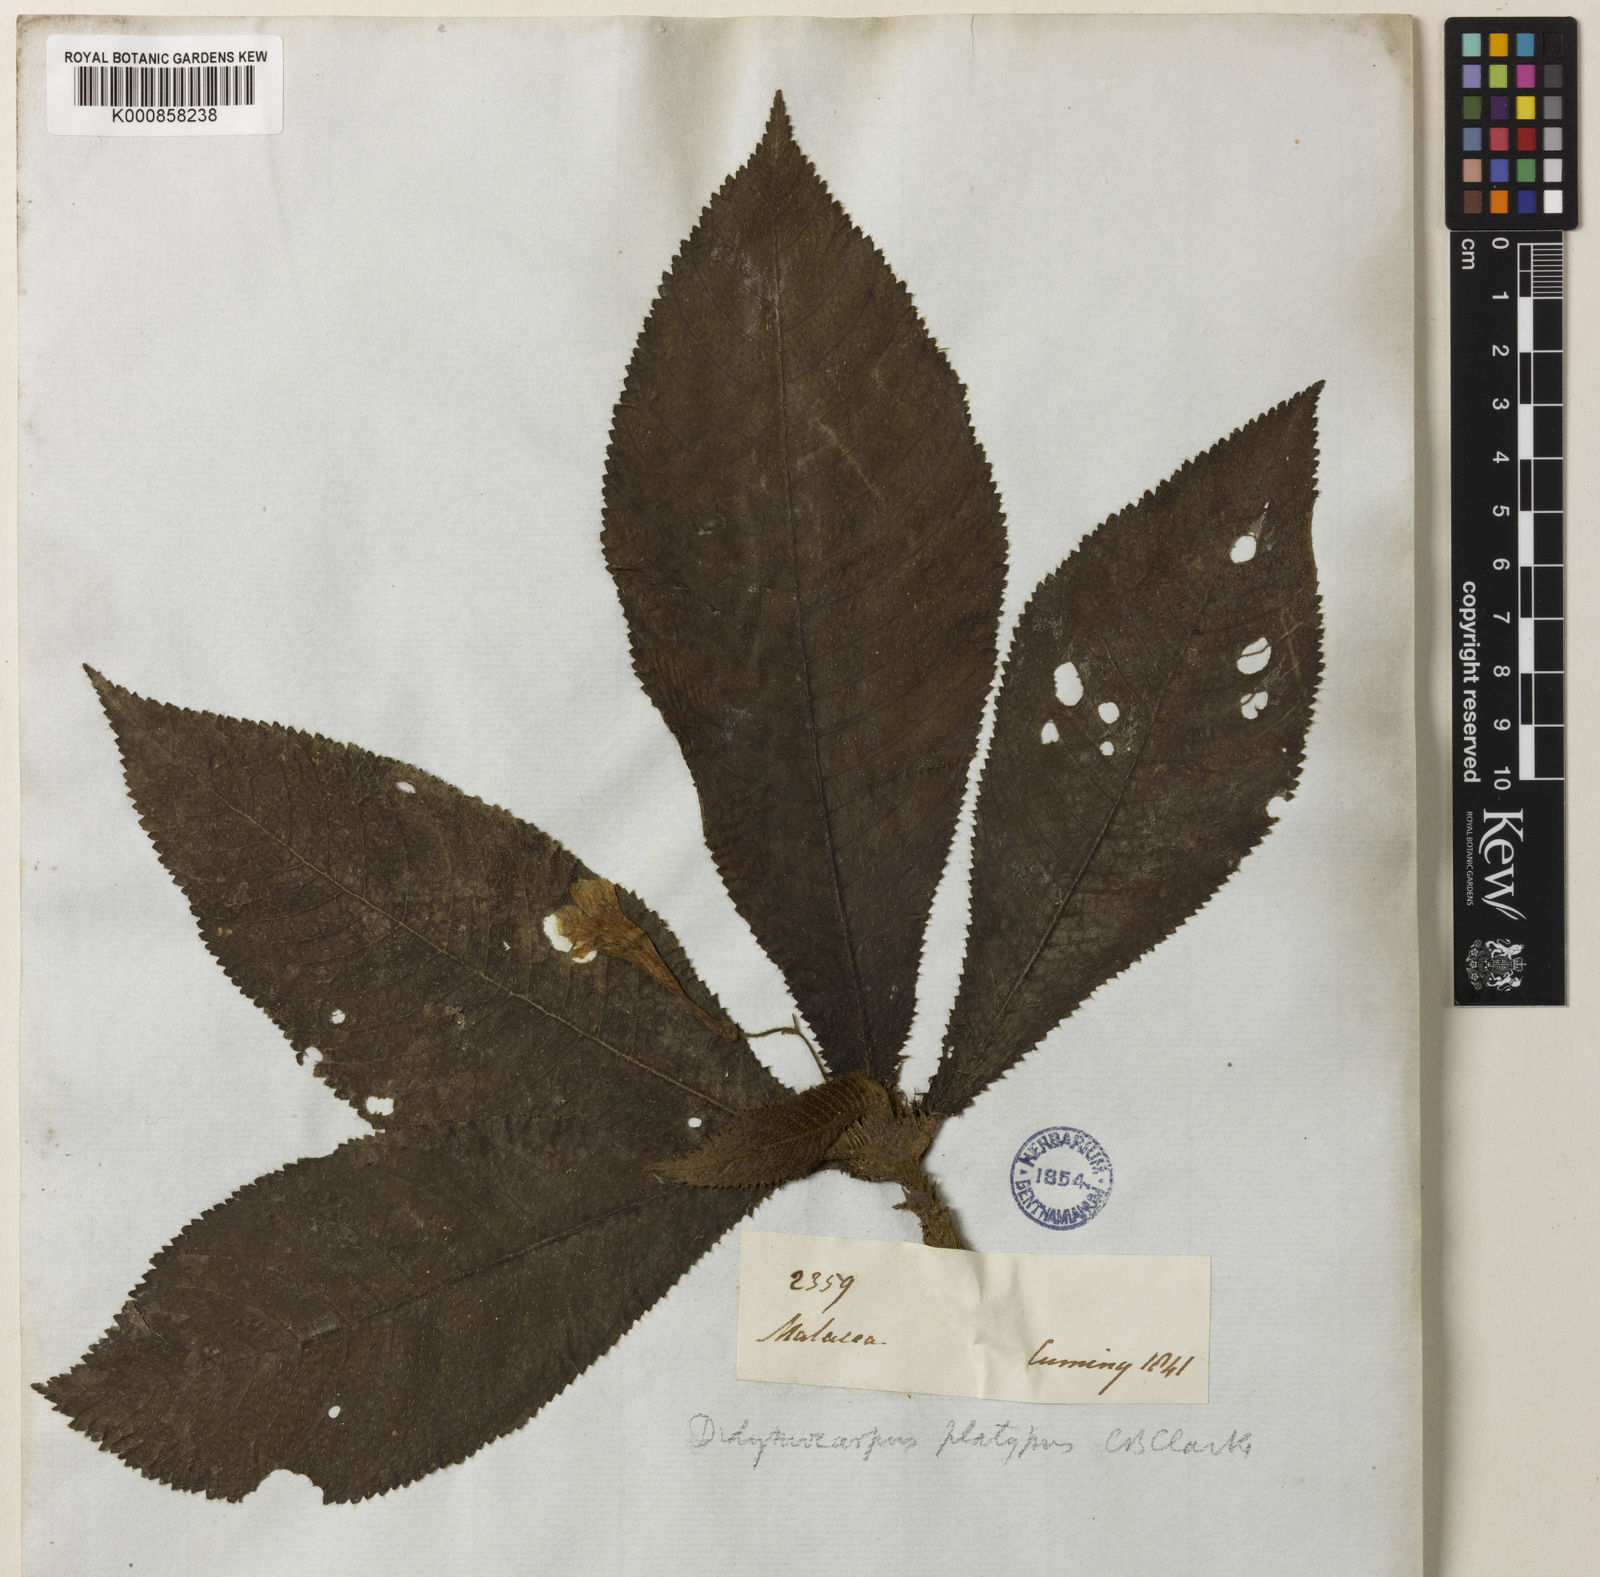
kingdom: Plantae
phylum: Tracheophyta
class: Magnoliopsida
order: Lamiales
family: Gesneriaceae
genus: Codonoboea
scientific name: Codonoboea platypus
